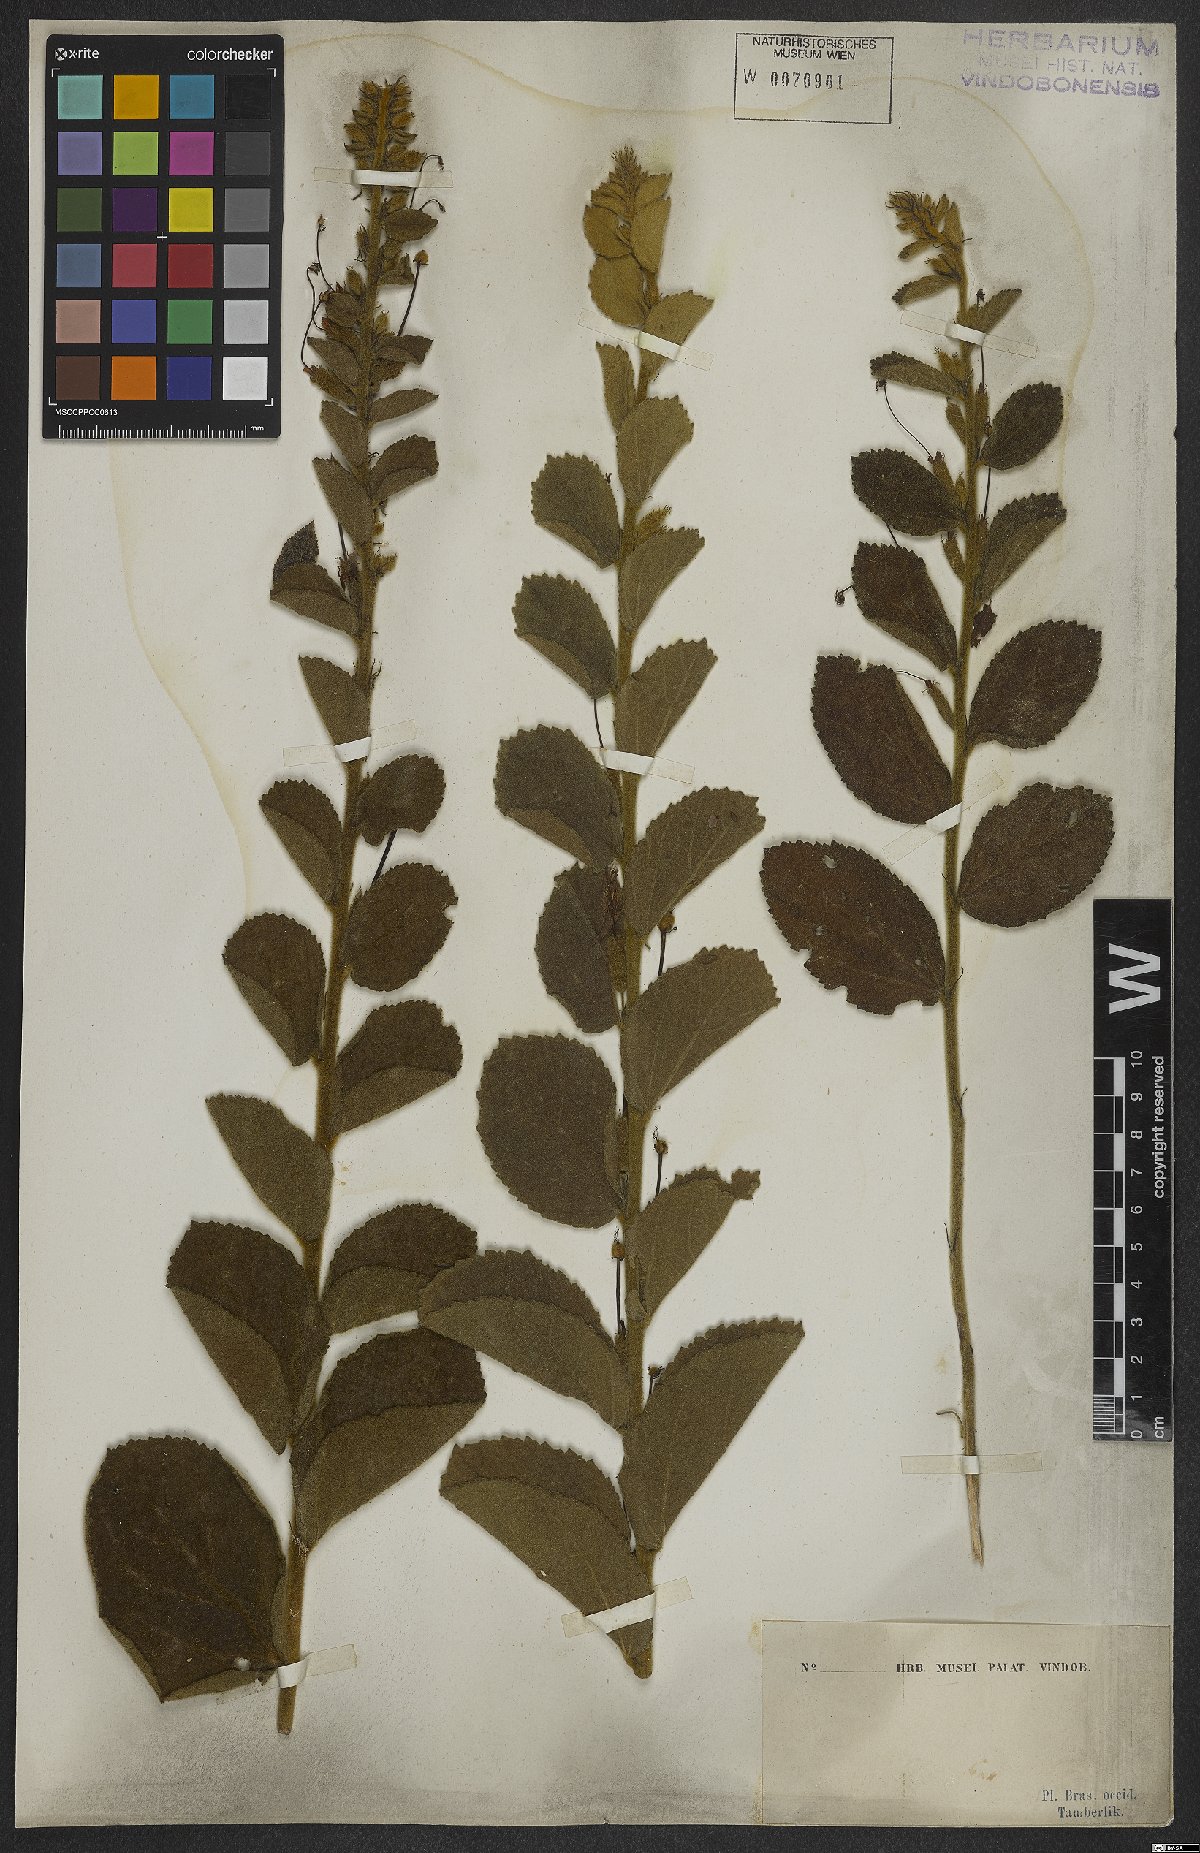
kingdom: Plantae
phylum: Tracheophyta
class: Magnoliopsida
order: Malvales
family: Malvaceae
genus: Helicteres
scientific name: Helicteres sacarolha
